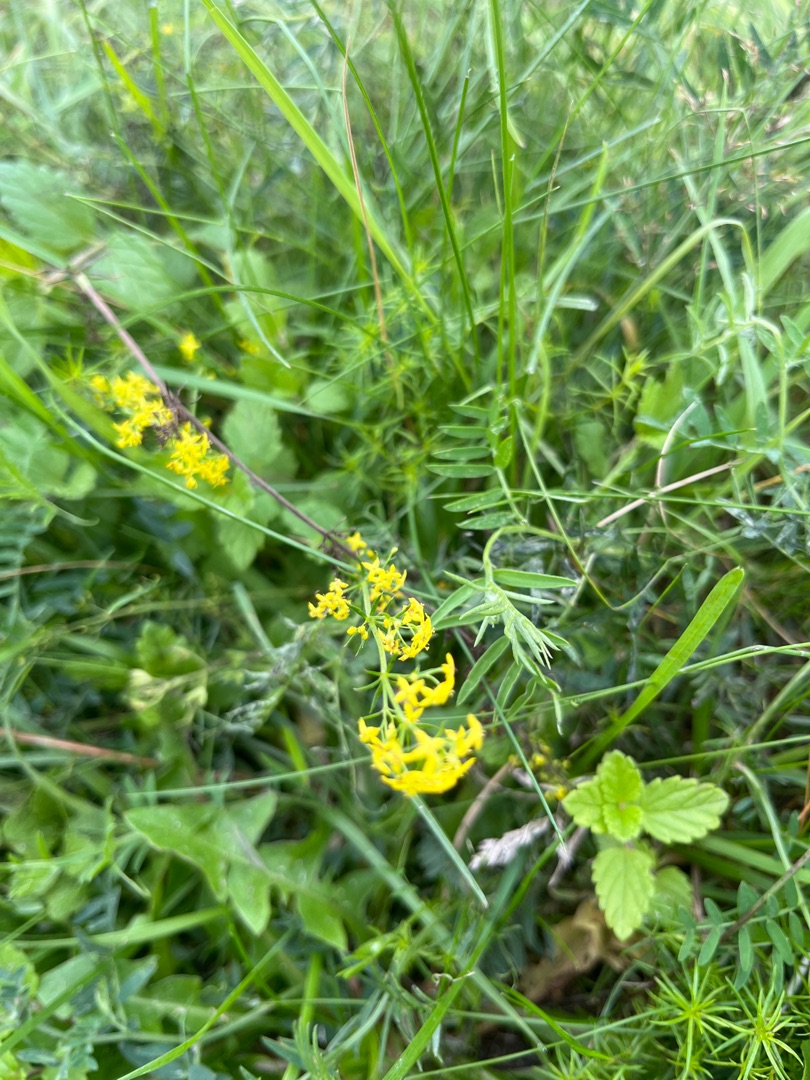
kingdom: Plantae
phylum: Tracheophyta
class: Magnoliopsida
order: Gentianales
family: Rubiaceae
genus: Galium
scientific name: Galium verum
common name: Gul snerre
